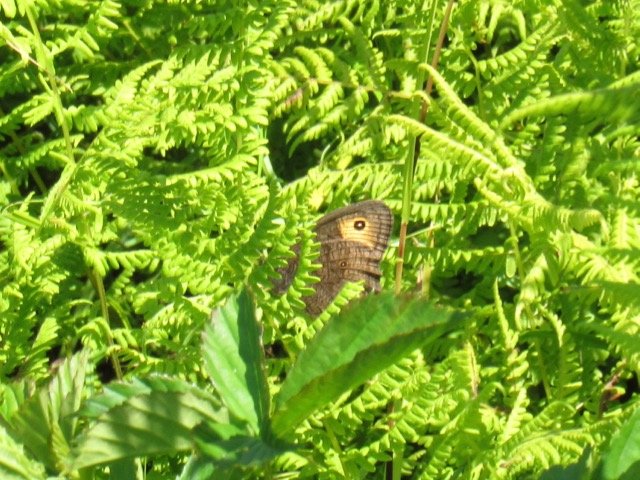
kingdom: Animalia
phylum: Arthropoda
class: Insecta
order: Lepidoptera
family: Nymphalidae
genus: Cercyonis
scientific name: Cercyonis pegala
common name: Common Wood-Nymph
